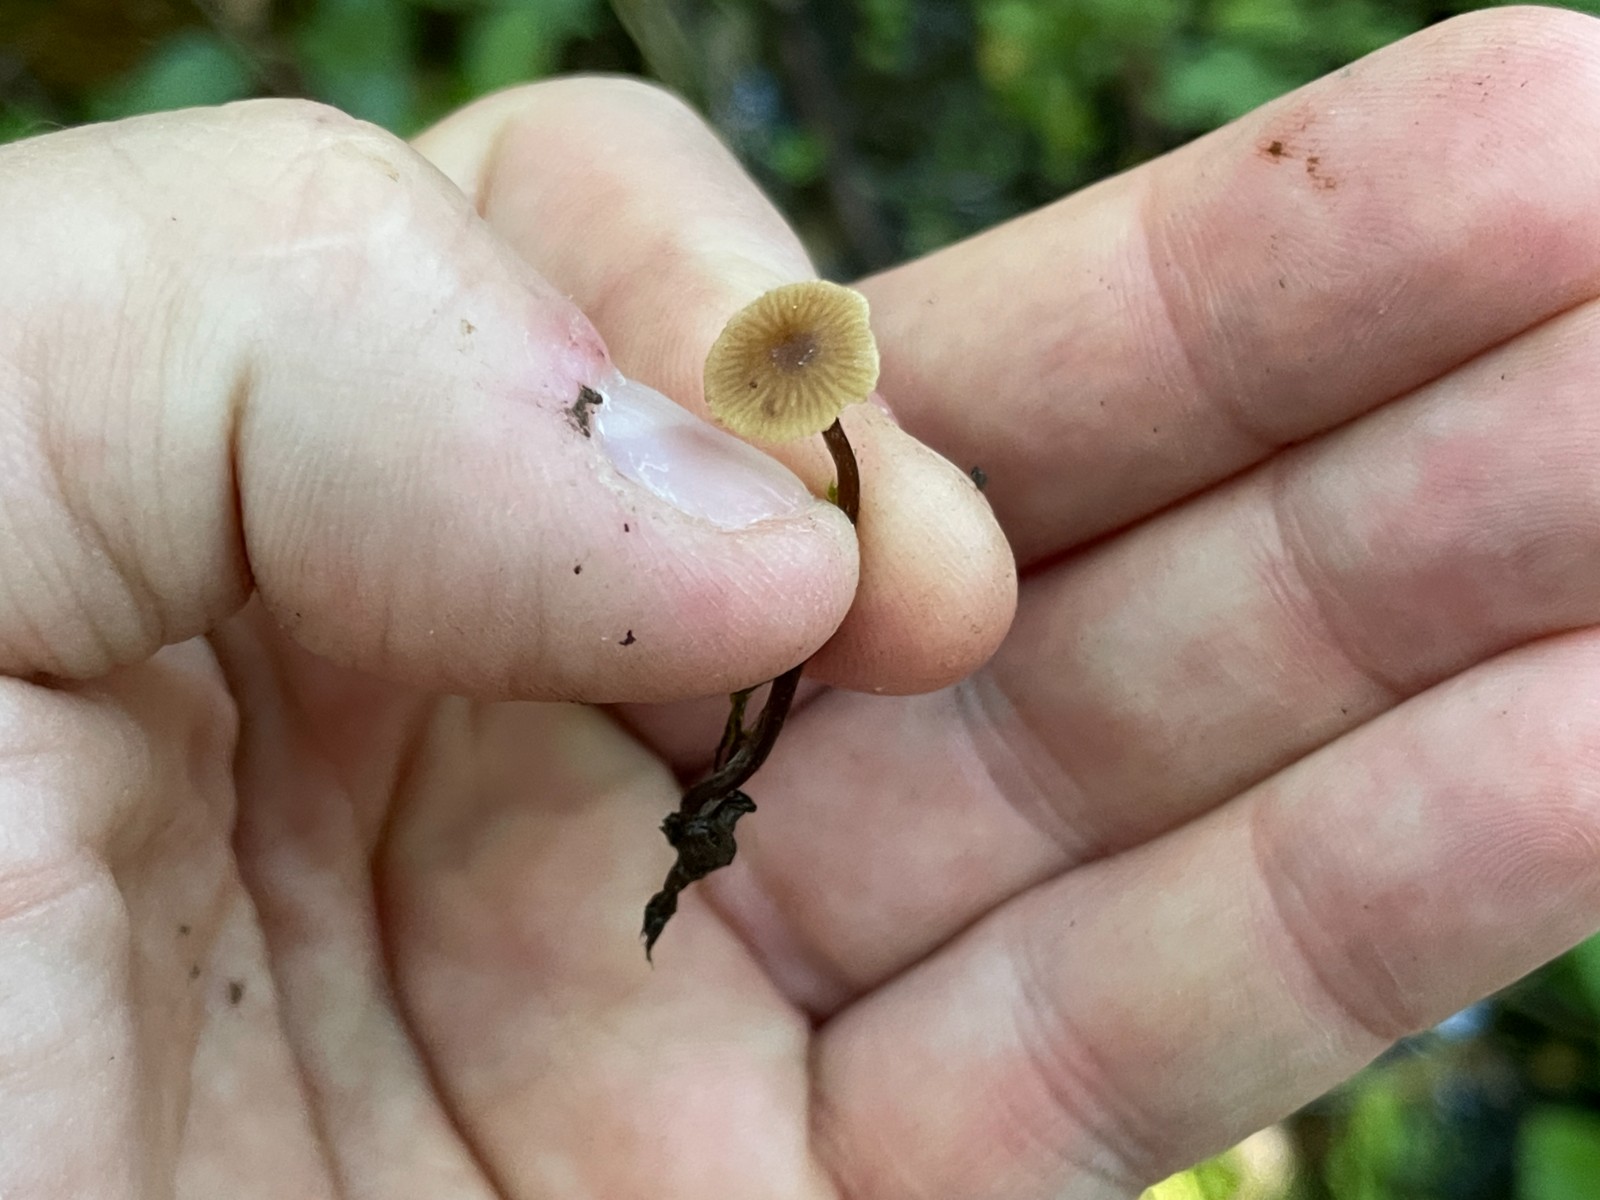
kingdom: Fungi
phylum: Basidiomycota
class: Agaricomycetes
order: Agaricales
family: Hymenogastraceae
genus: Naucoria
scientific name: Naucoria
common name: knaphat
